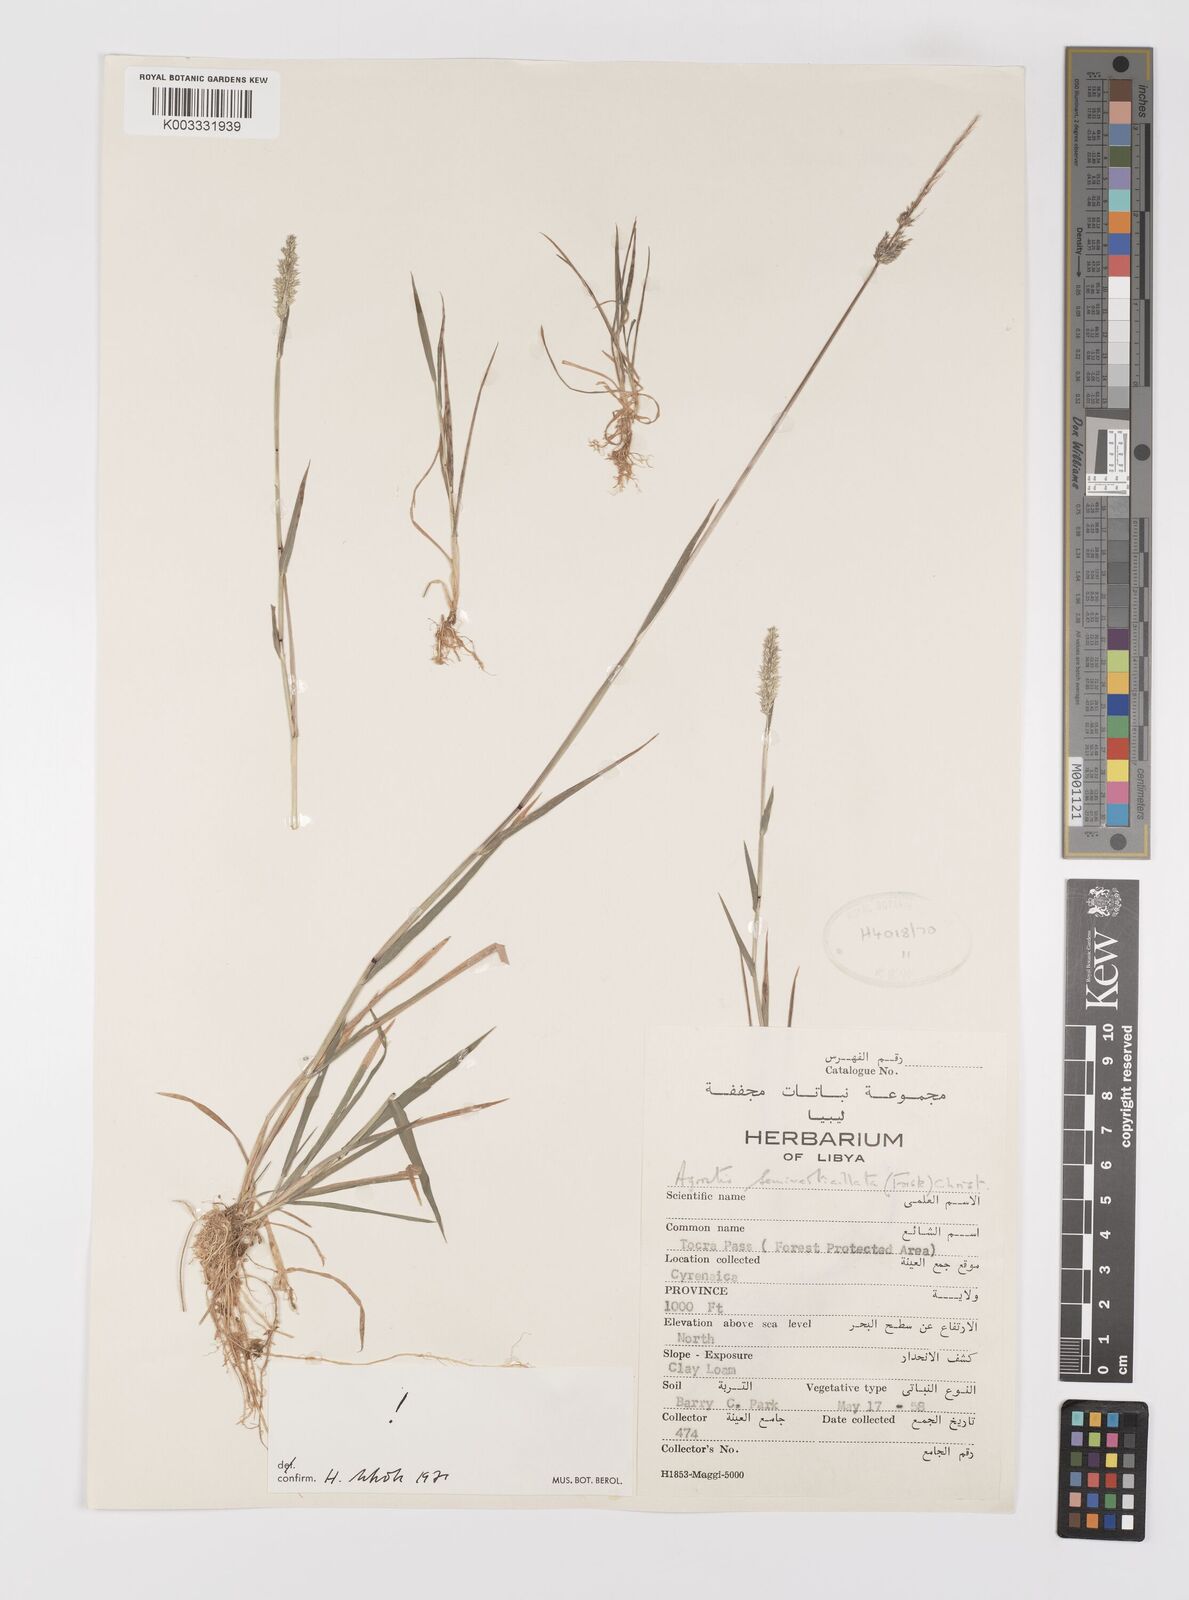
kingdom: Plantae
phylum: Tracheophyta
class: Liliopsida
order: Poales
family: Poaceae
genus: Polypogon
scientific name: Polypogon viridis
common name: Water bent
